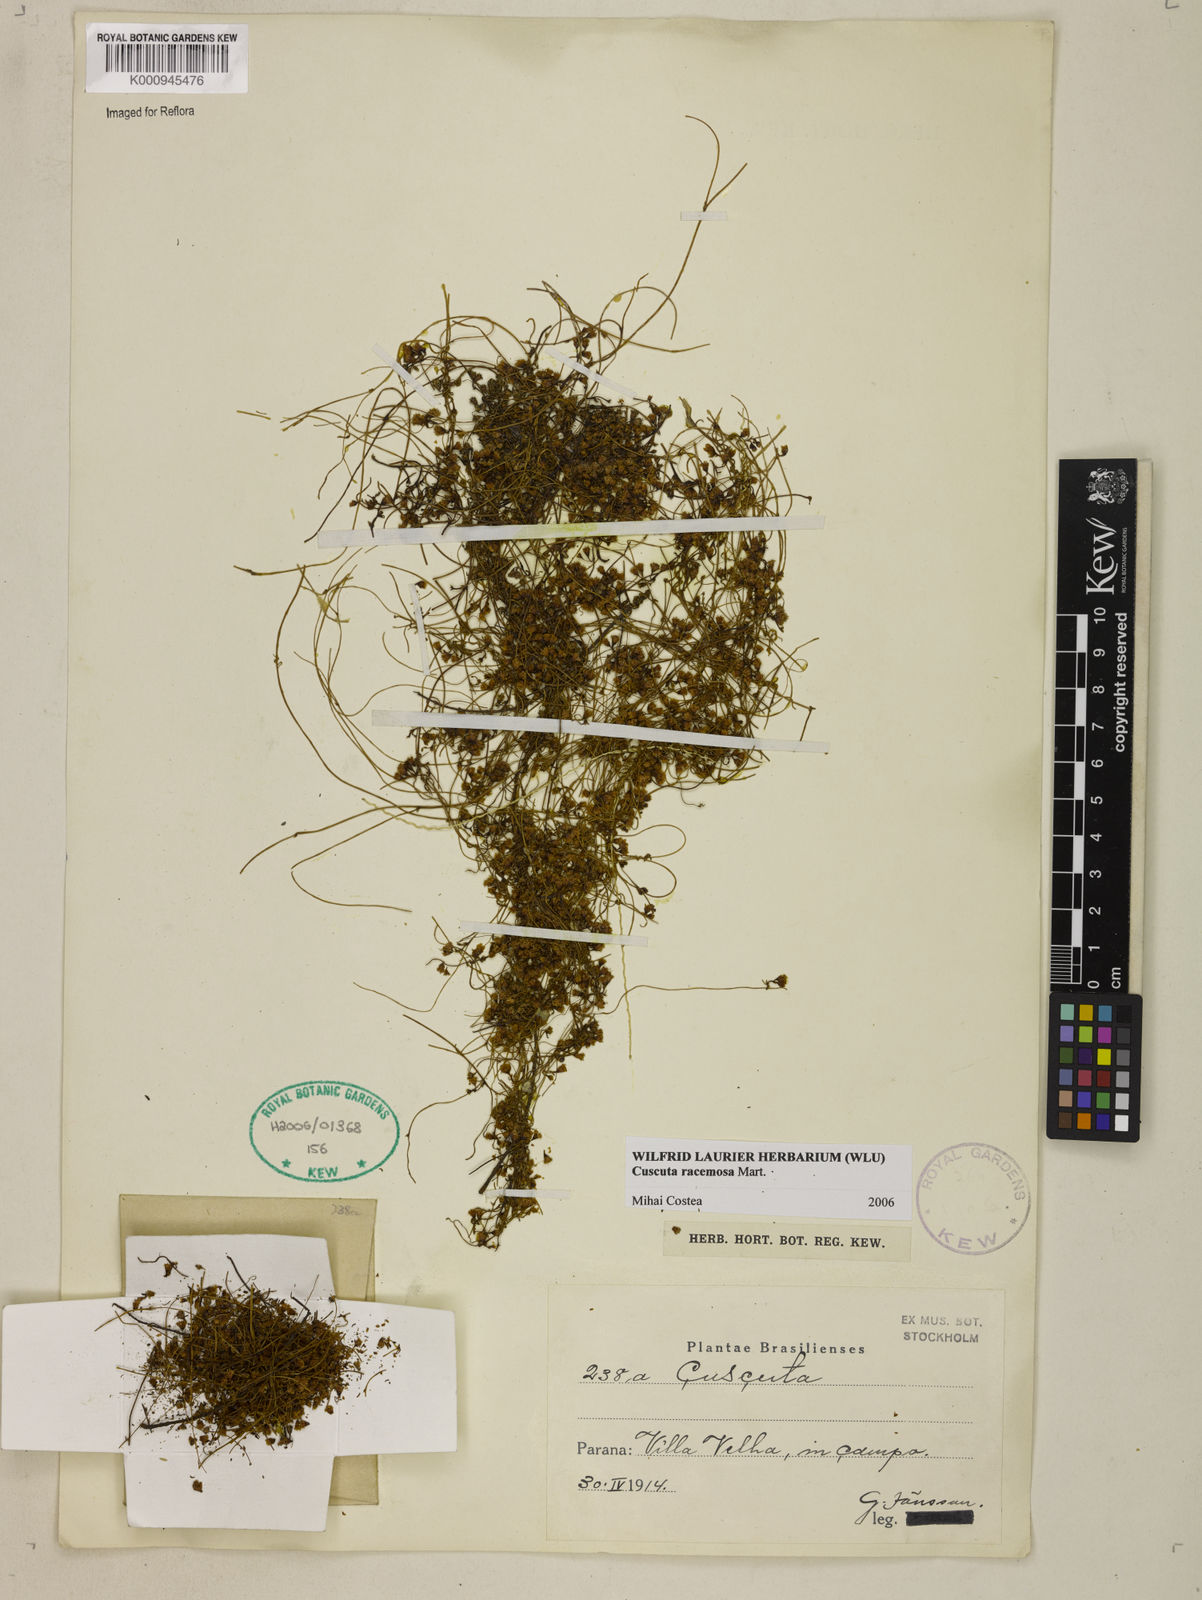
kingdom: Plantae
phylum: Tracheophyta
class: Magnoliopsida
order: Solanales
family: Convolvulaceae
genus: Cuscuta
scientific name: Cuscuta racemosa
